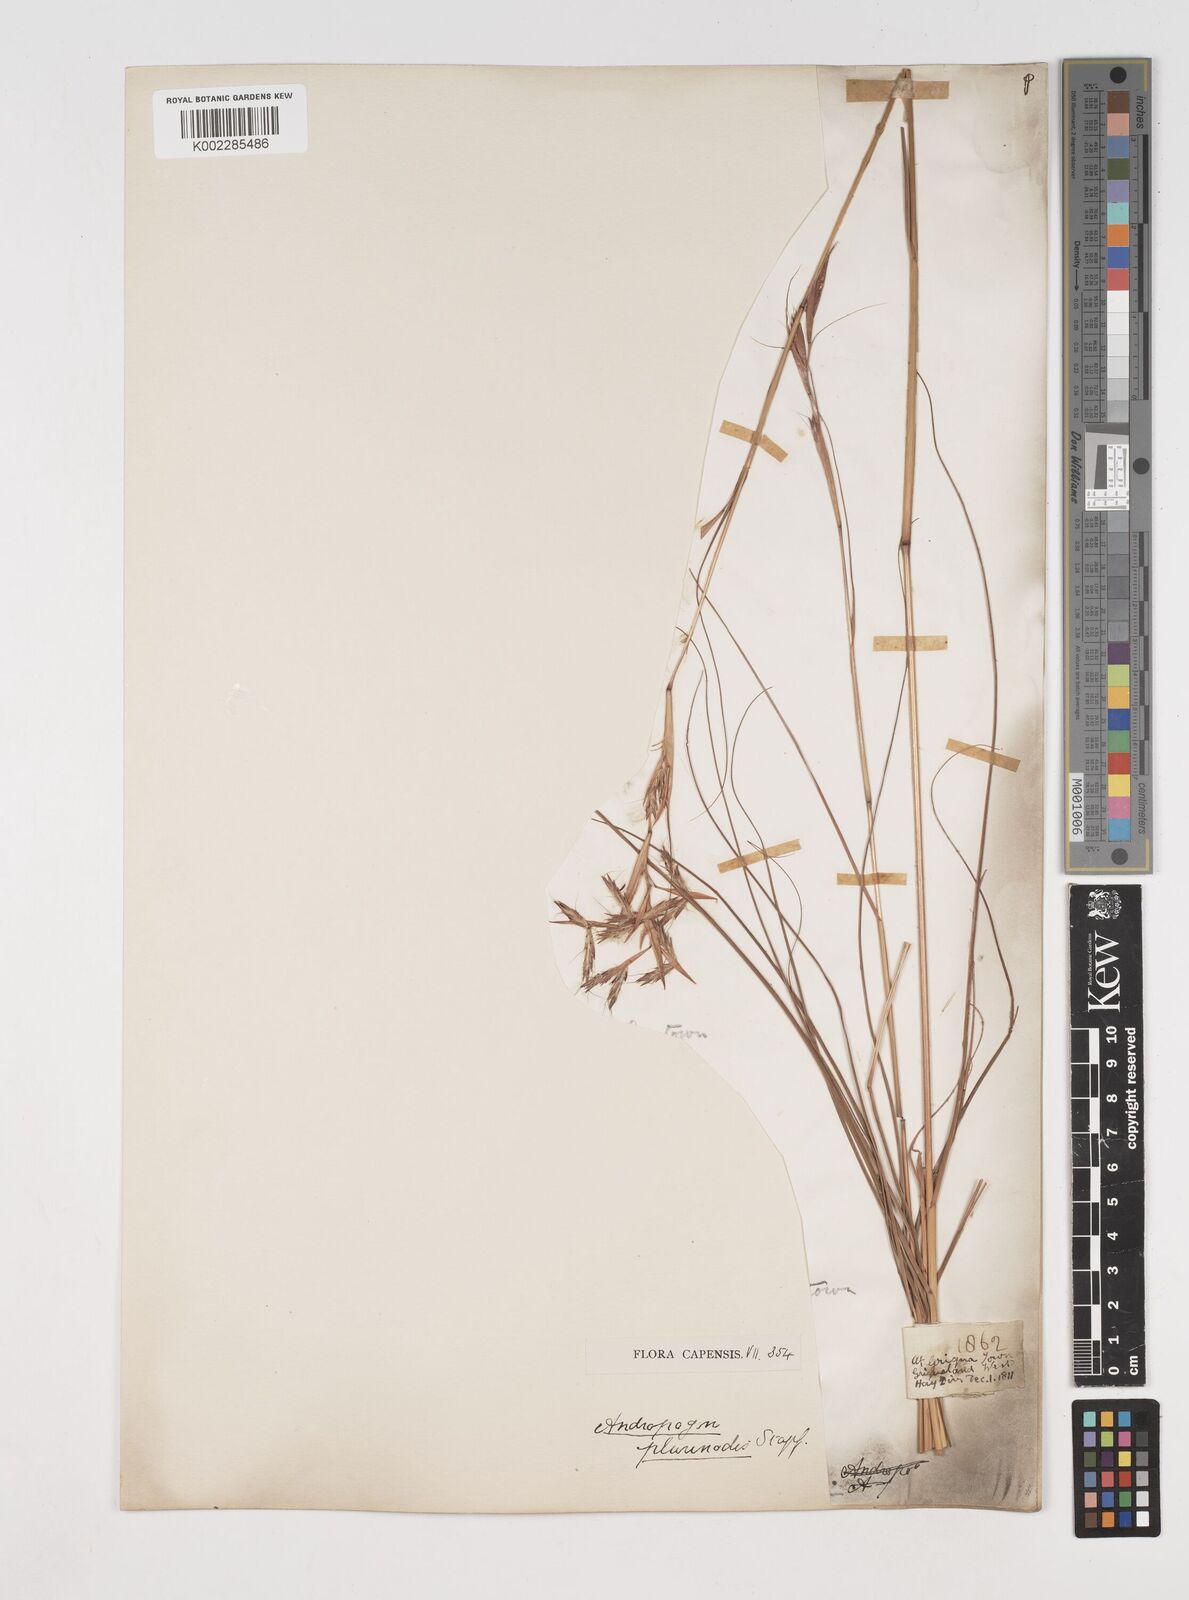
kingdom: Plantae
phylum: Tracheophyta
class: Liliopsida
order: Poales
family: Poaceae
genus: Cymbopogon
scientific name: Cymbopogon pospischilii
